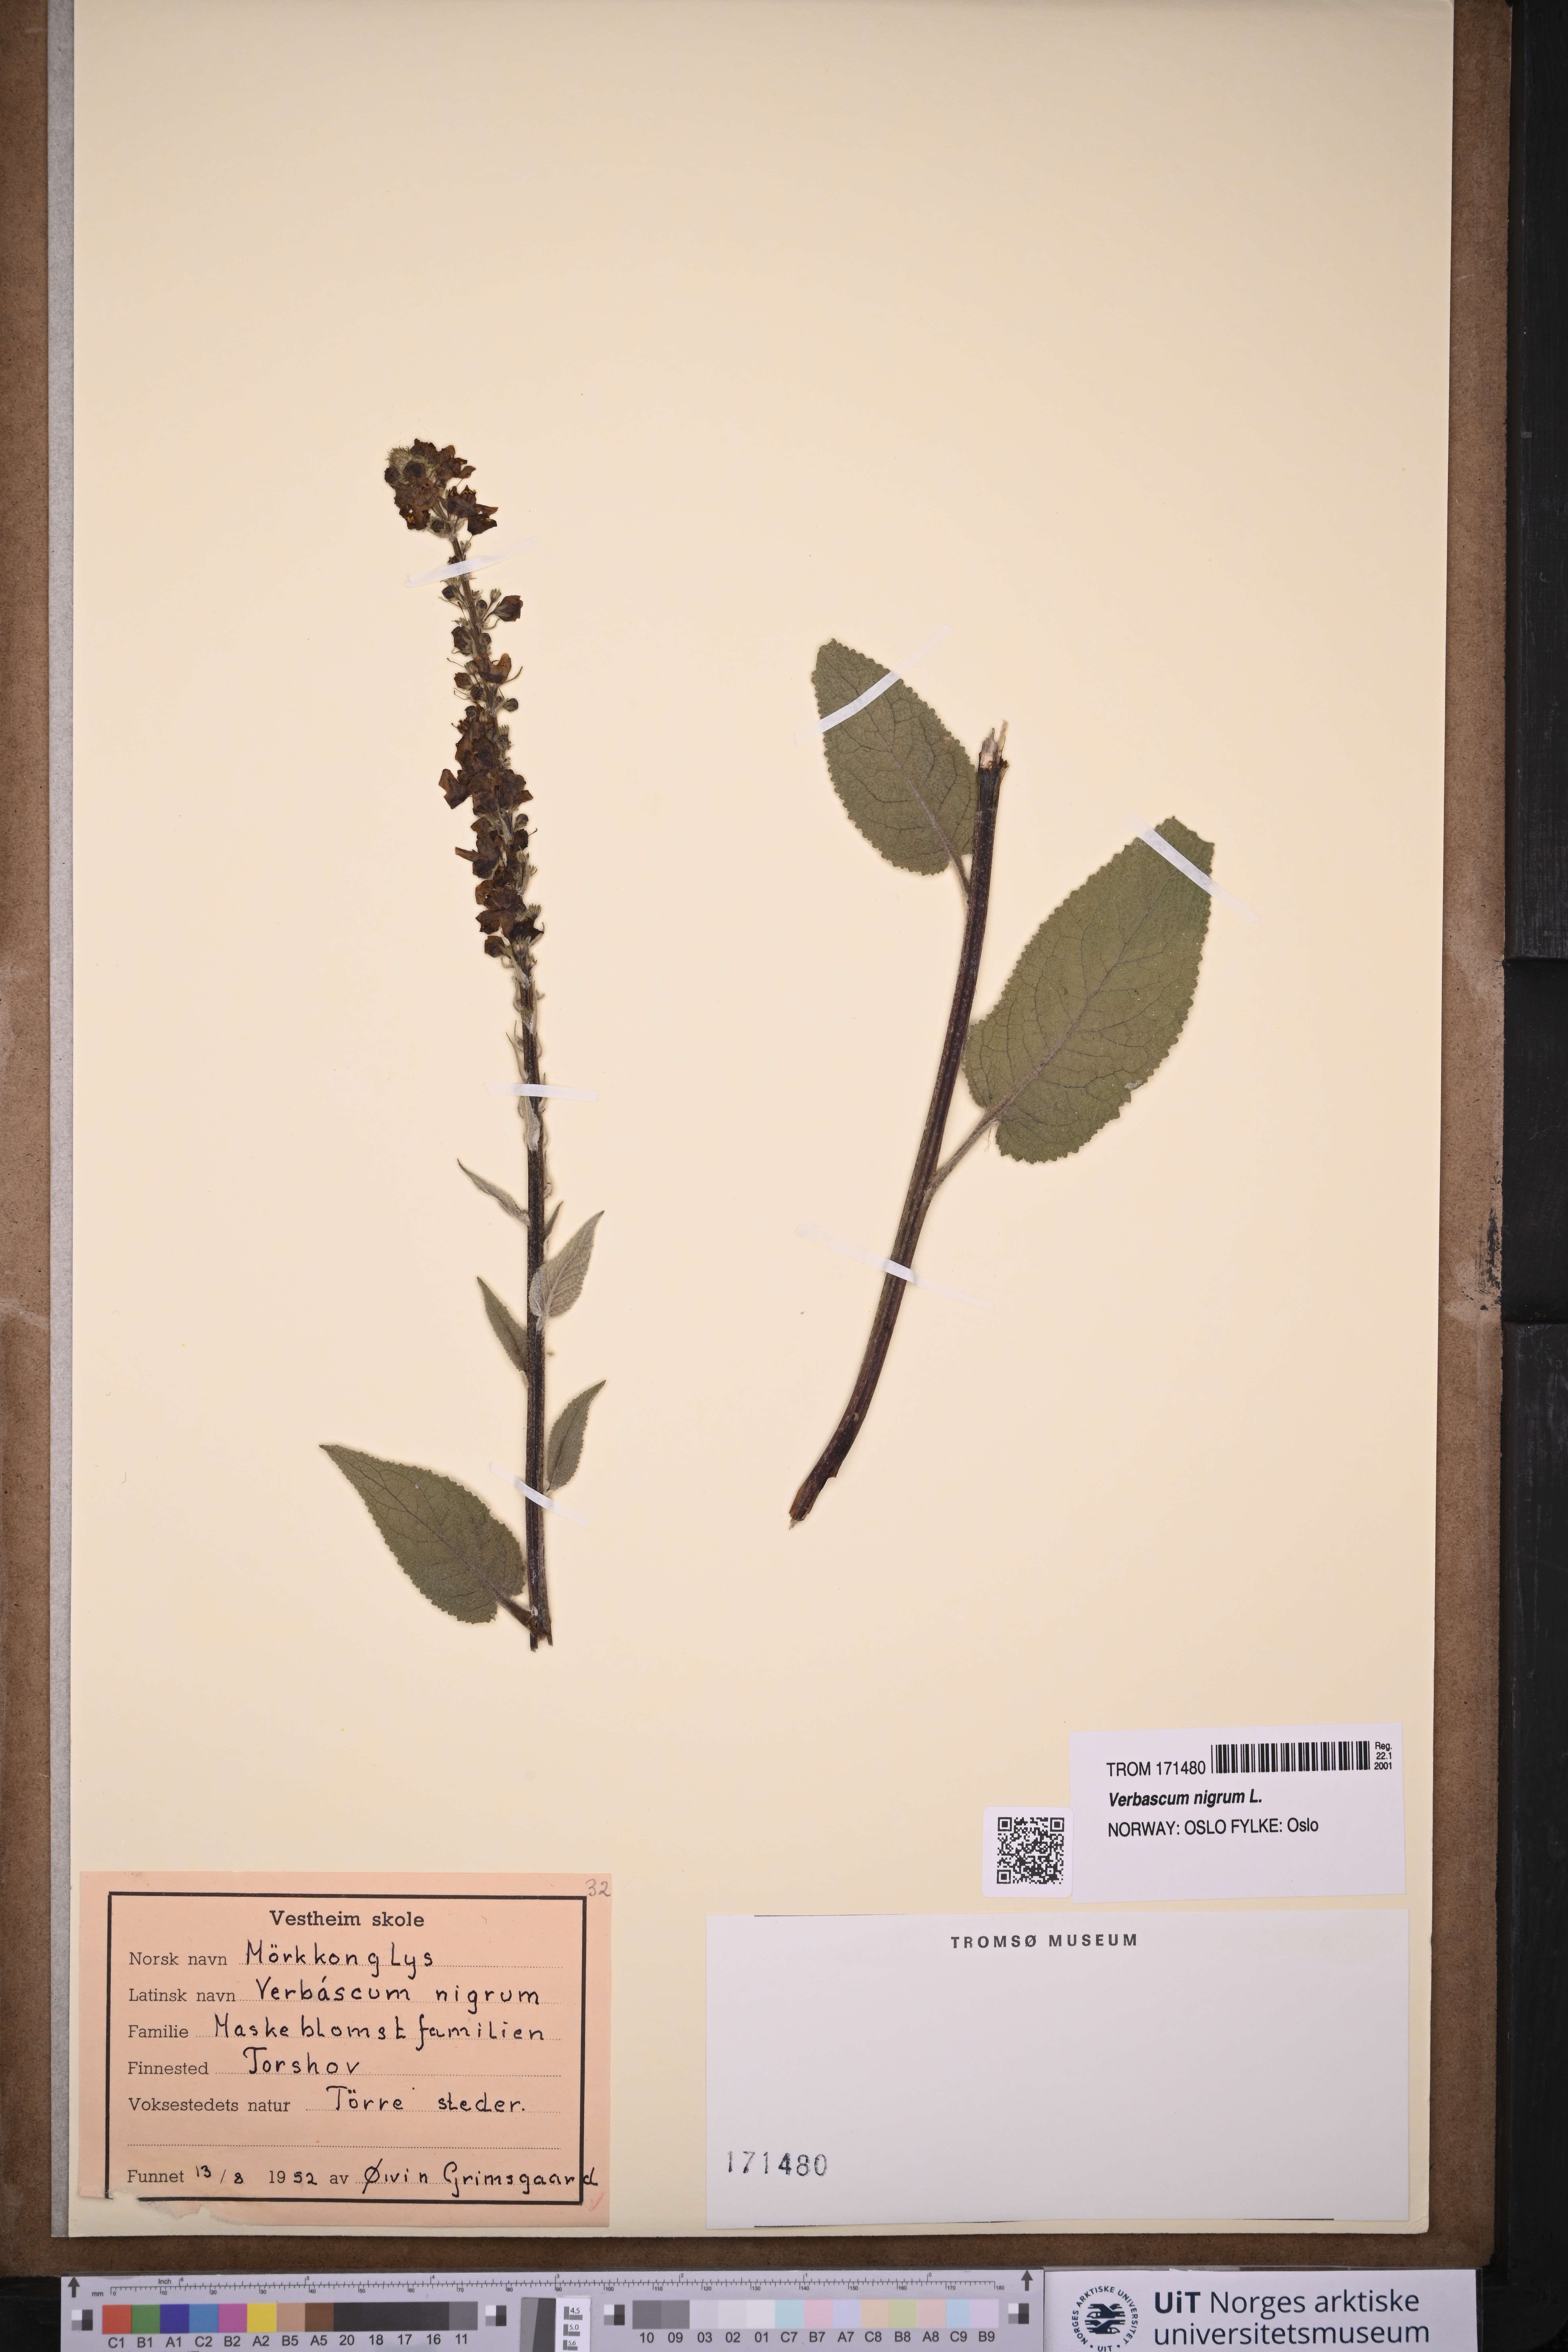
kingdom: Plantae
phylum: Tracheophyta
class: Magnoliopsida
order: Lamiales
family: Scrophulariaceae
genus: Verbascum
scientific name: Verbascum nigrum
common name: Dark mullein
